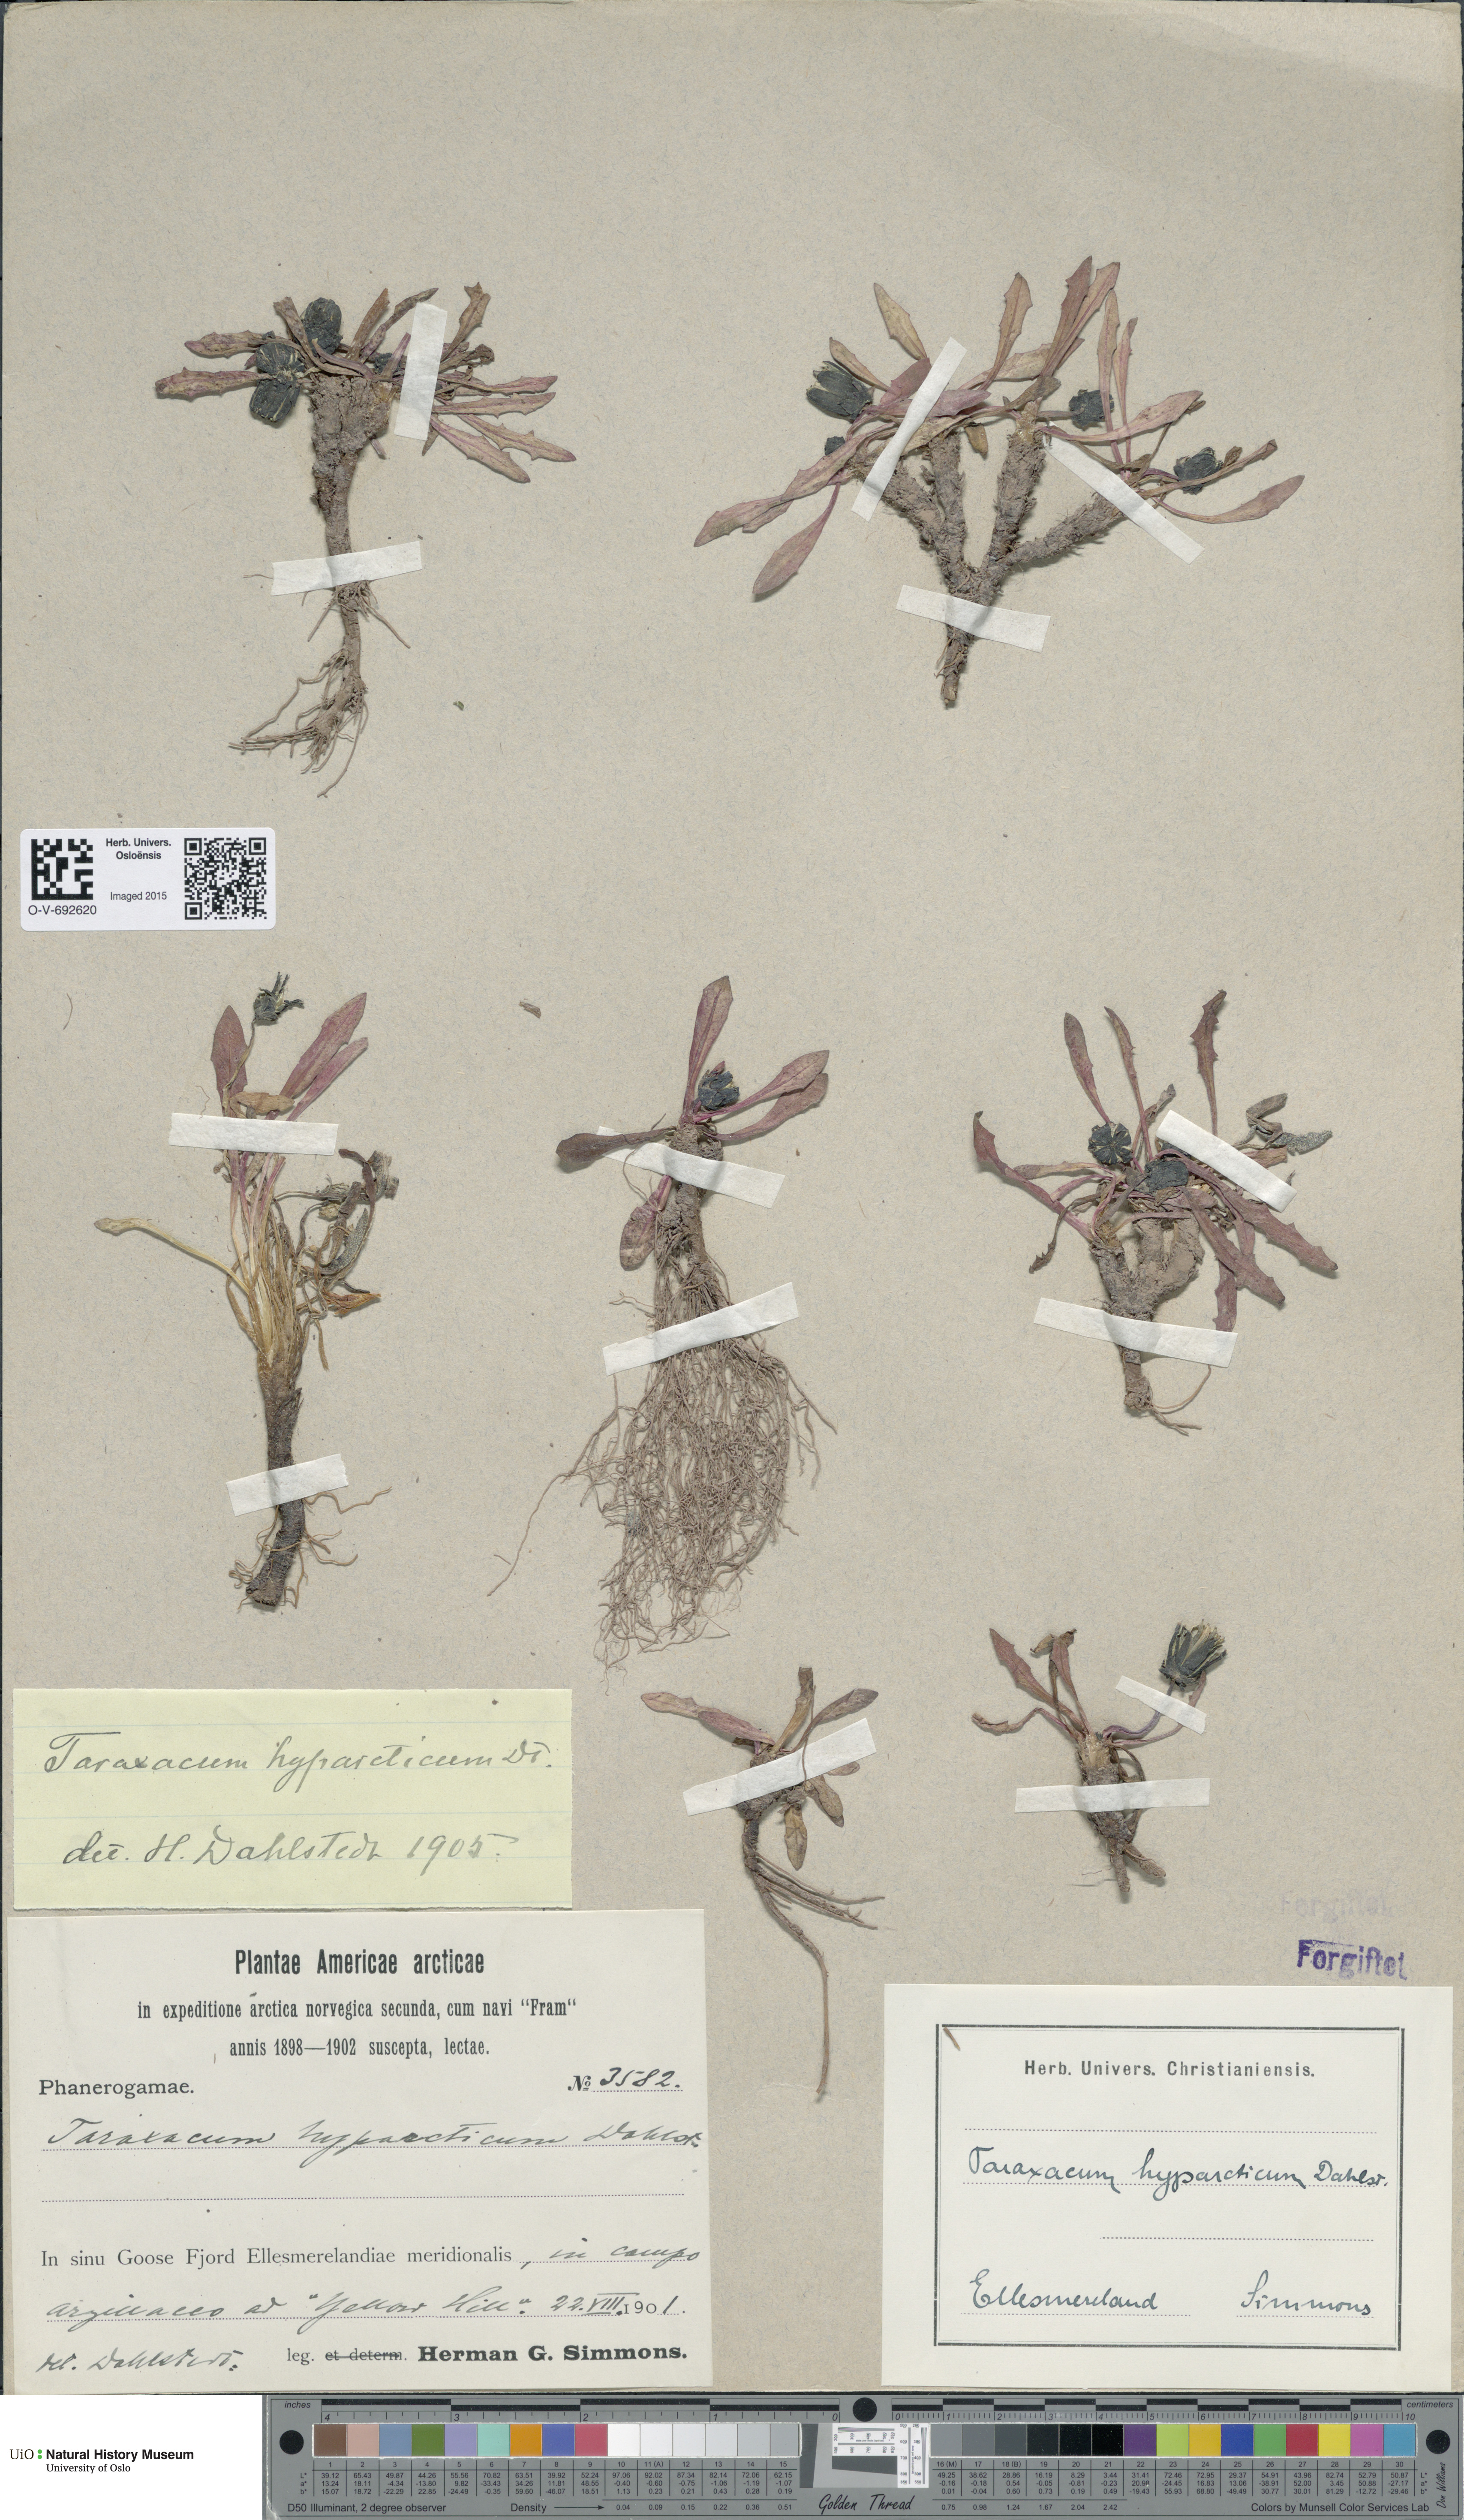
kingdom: Plantae
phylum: Tracheophyta
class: Magnoliopsida
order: Asterales
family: Asteraceae
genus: Taraxacum
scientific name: Taraxacum hyparcticum
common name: High arctic dandelion
